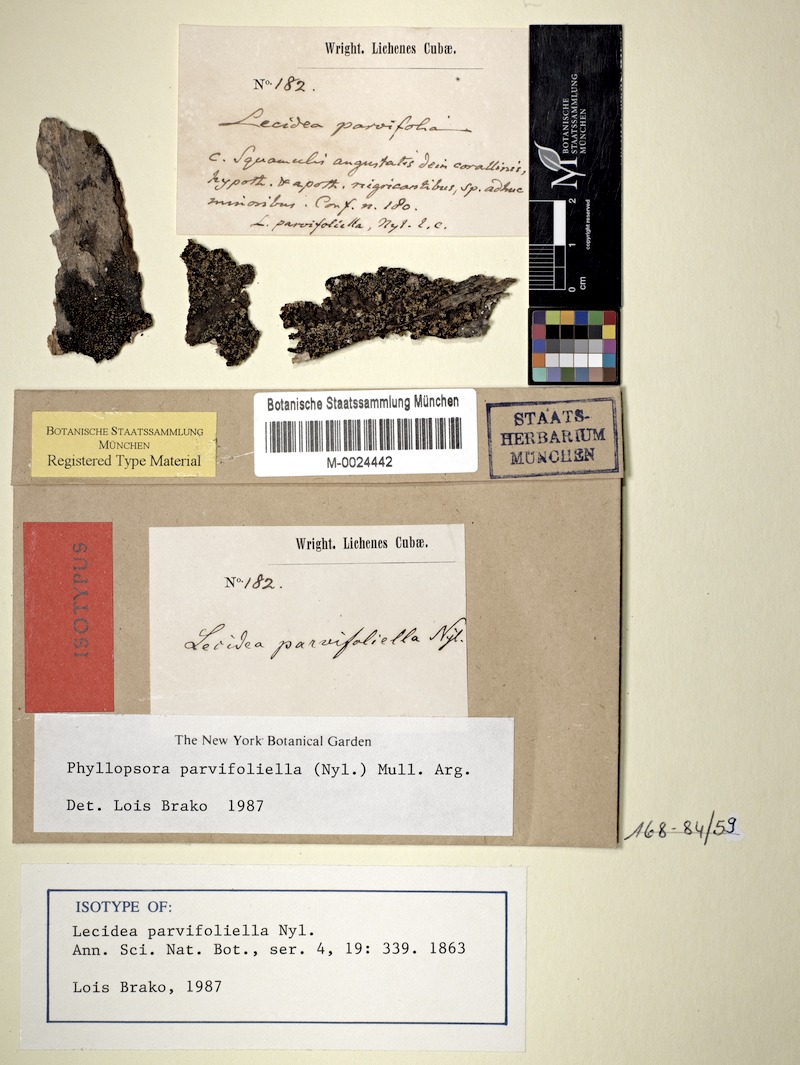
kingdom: Fungi
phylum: Ascomycota
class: Lecanoromycetes
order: Lecanorales
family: Ramalinaceae
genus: Phyllopsora
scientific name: Phyllopsora parvifoliella
